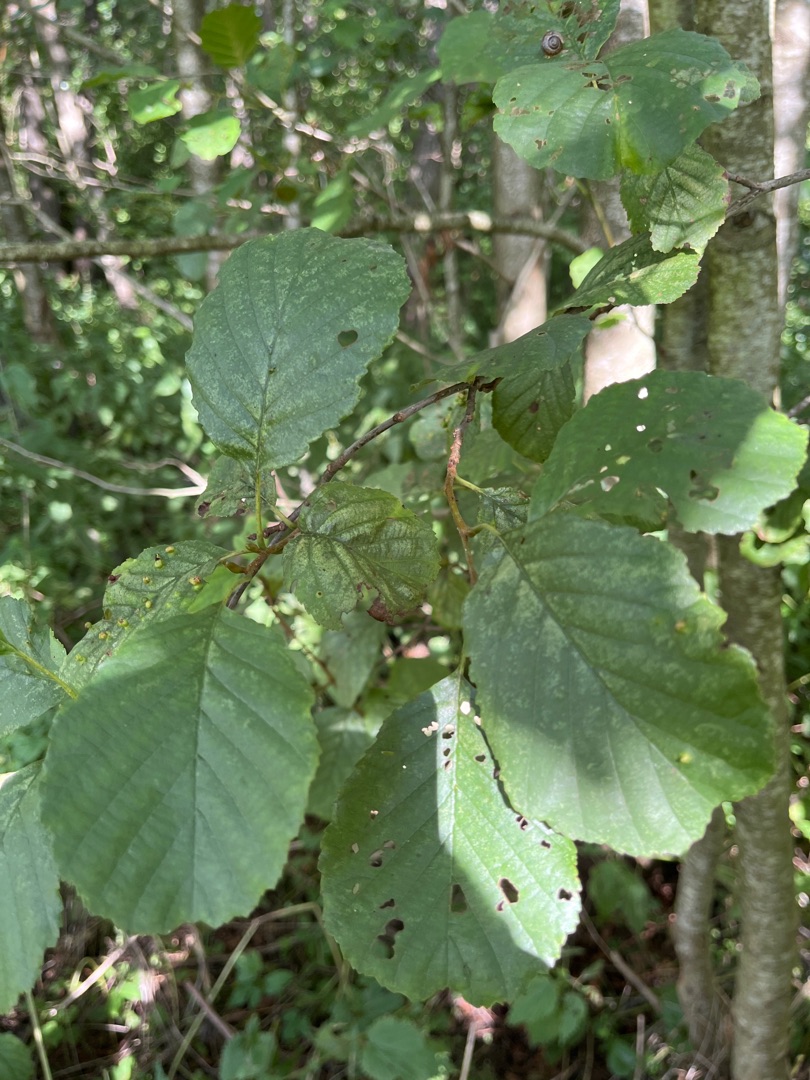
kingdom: Plantae
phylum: Tracheophyta
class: Magnoliopsida
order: Fagales
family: Betulaceae
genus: Alnus
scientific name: Alnus glutinosa
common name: Rød-el
